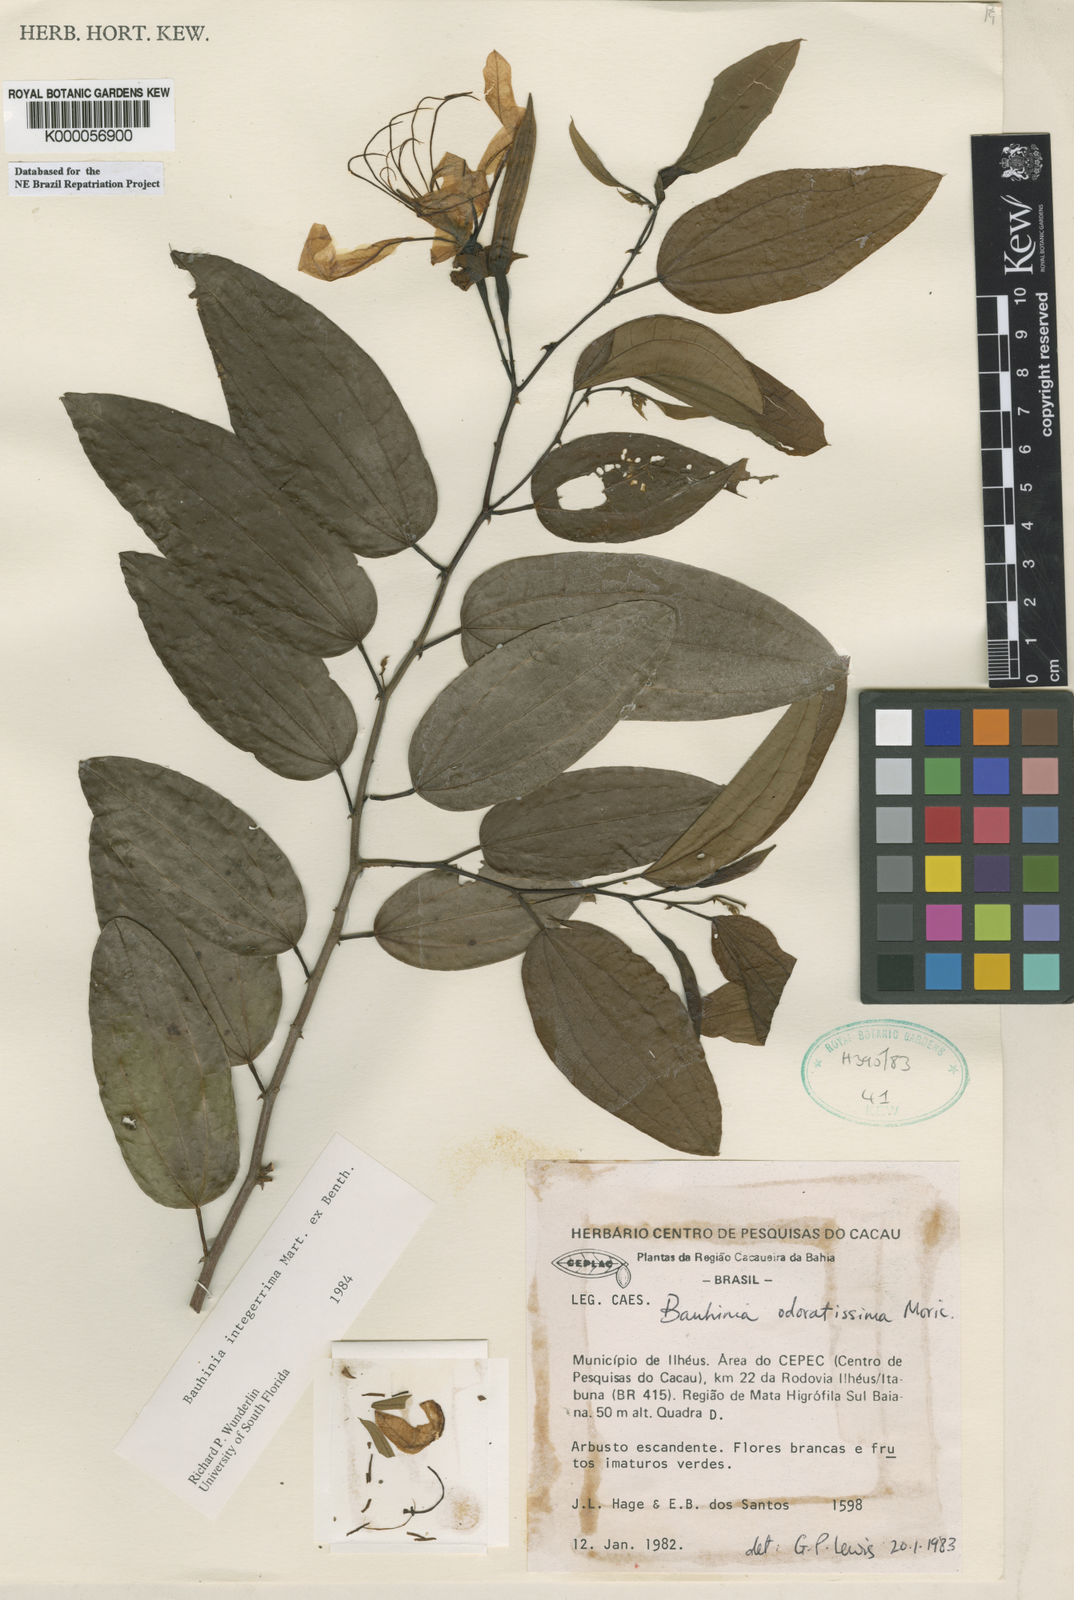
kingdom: Plantae
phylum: Tracheophyta
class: Magnoliopsida
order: Fabales
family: Fabaceae
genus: Bauhinia
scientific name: Bauhinia integerrima
